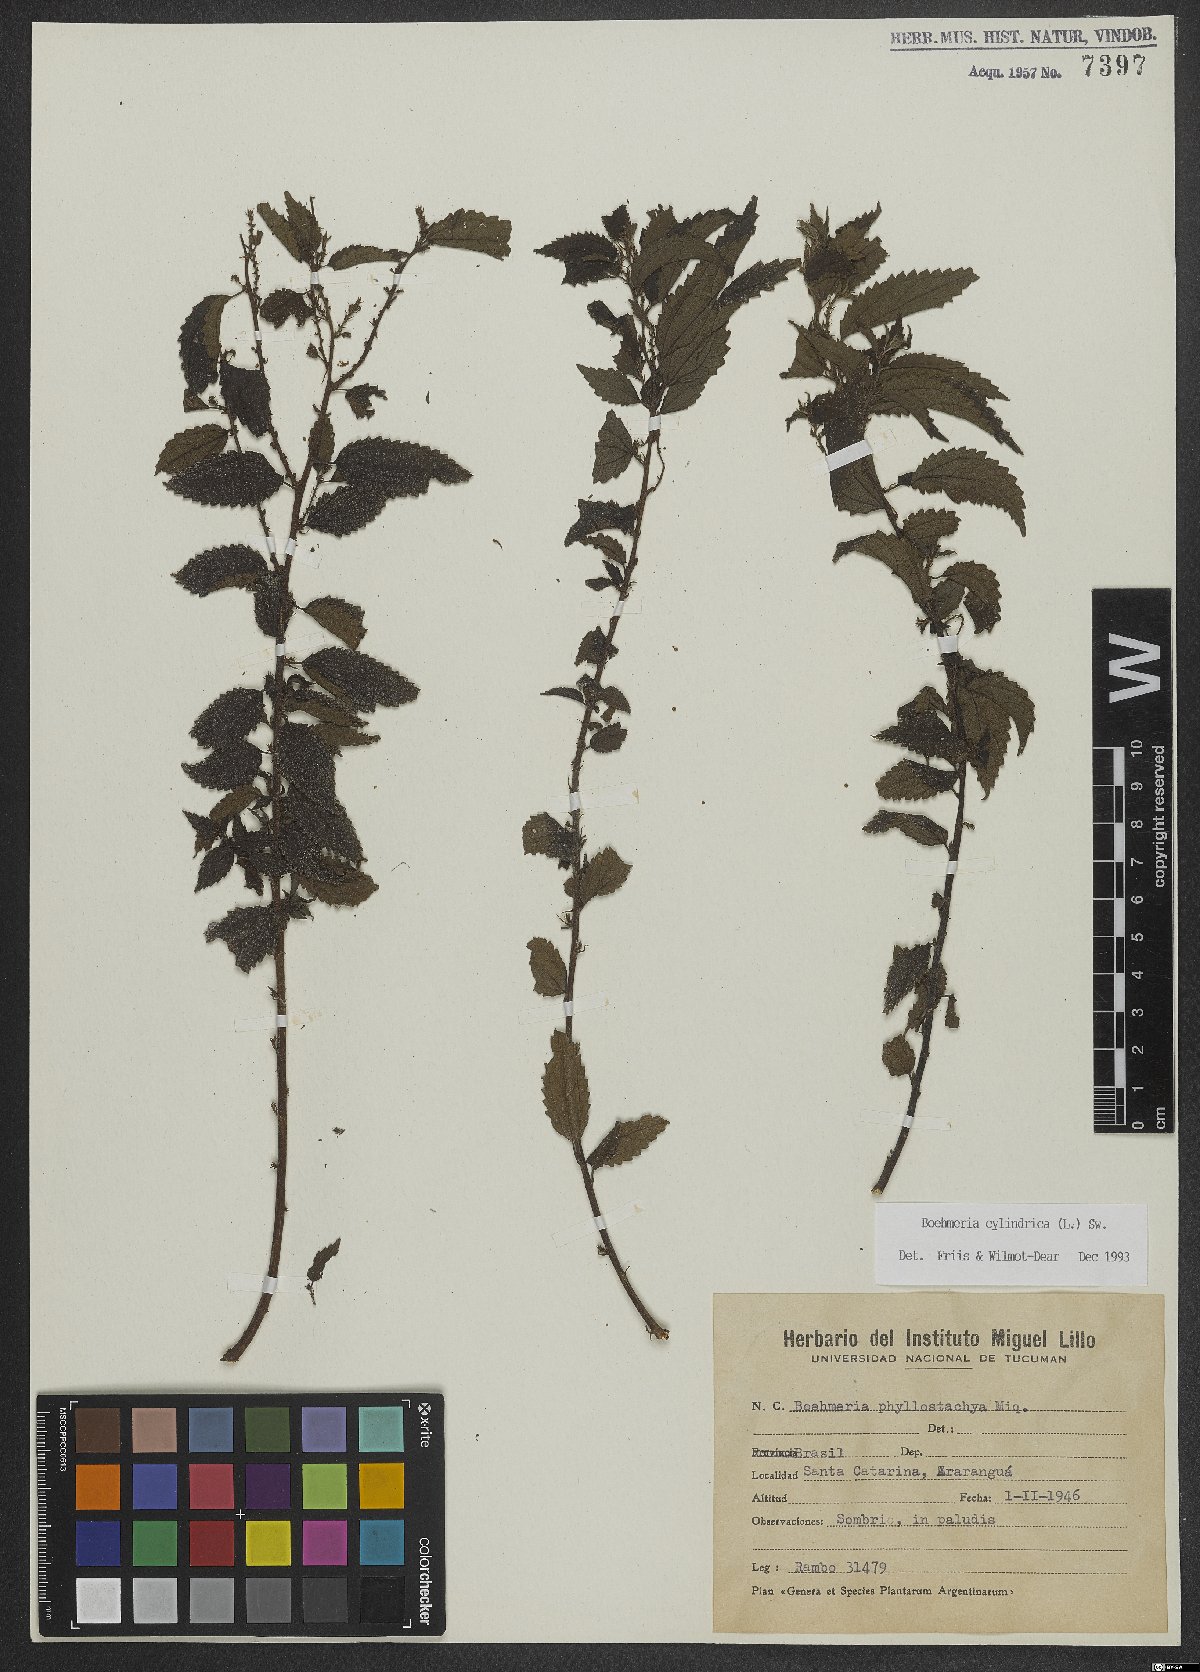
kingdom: Plantae
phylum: Tracheophyta
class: Magnoliopsida
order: Rosales
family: Urticaceae
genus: Boehmeria
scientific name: Boehmeria cylindrica
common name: Bog-hemp
